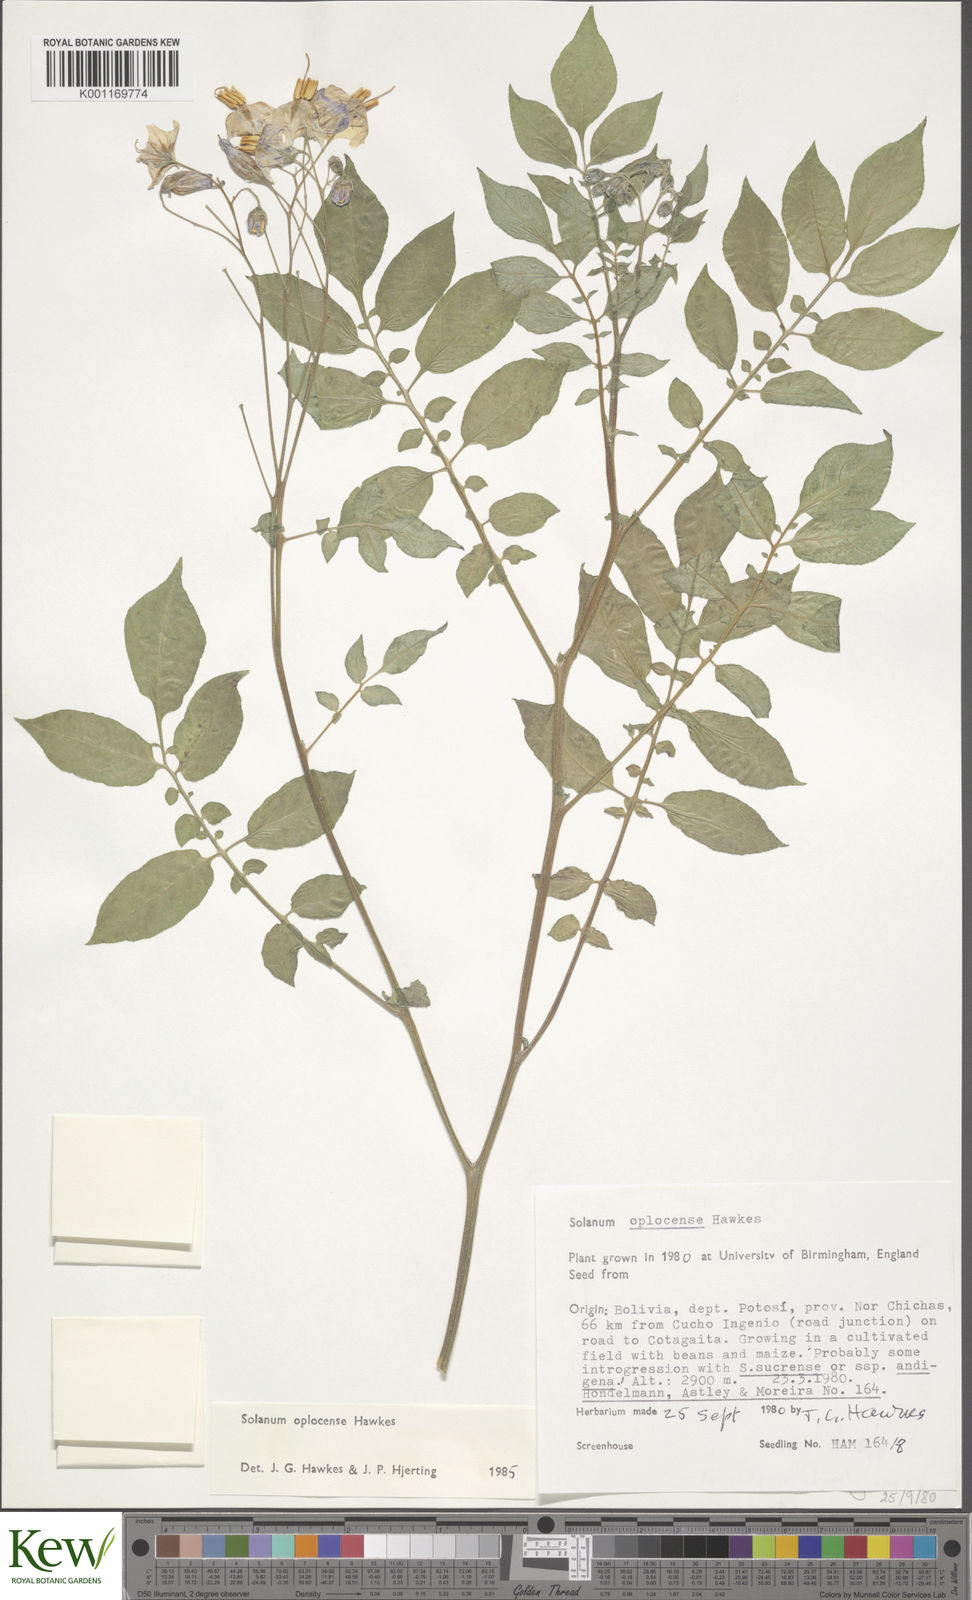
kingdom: Plantae
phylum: Tracheophyta
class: Magnoliopsida
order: Solanales
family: Solanaceae
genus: Solanum
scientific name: Solanum brevicaule
